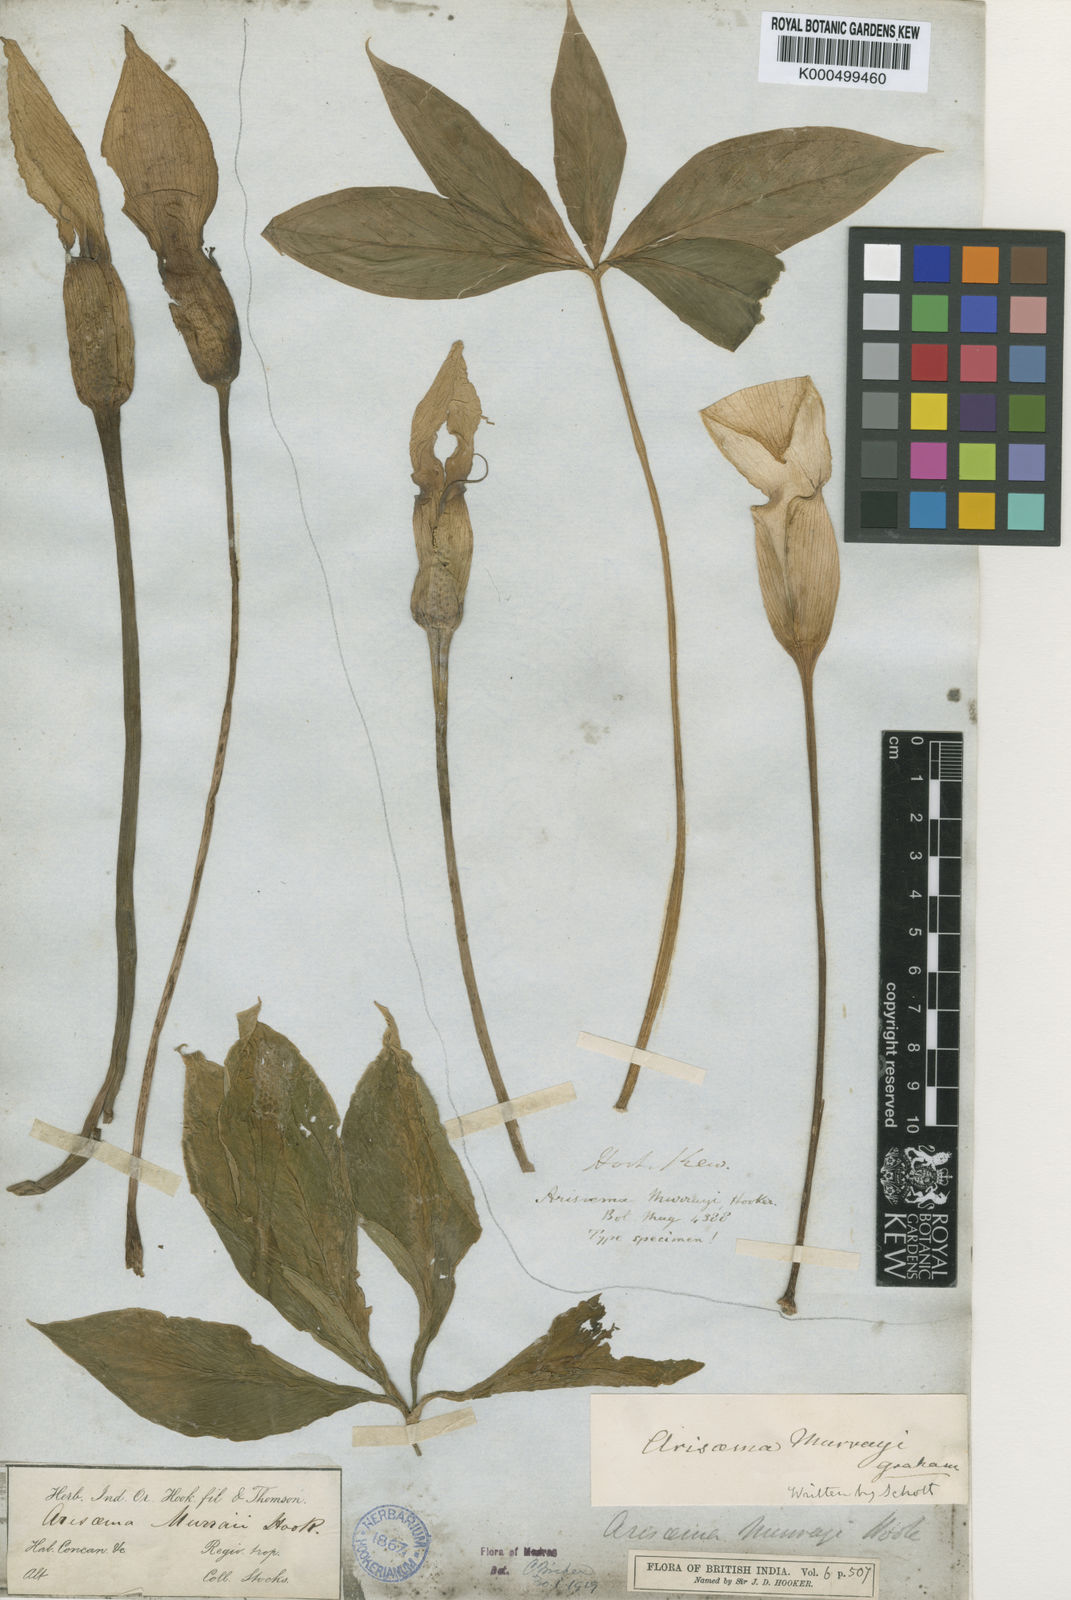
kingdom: Plantae
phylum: Tracheophyta
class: Liliopsida
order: Alismatales
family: Araceae
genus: Arisaema
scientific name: Arisaema murrayi
